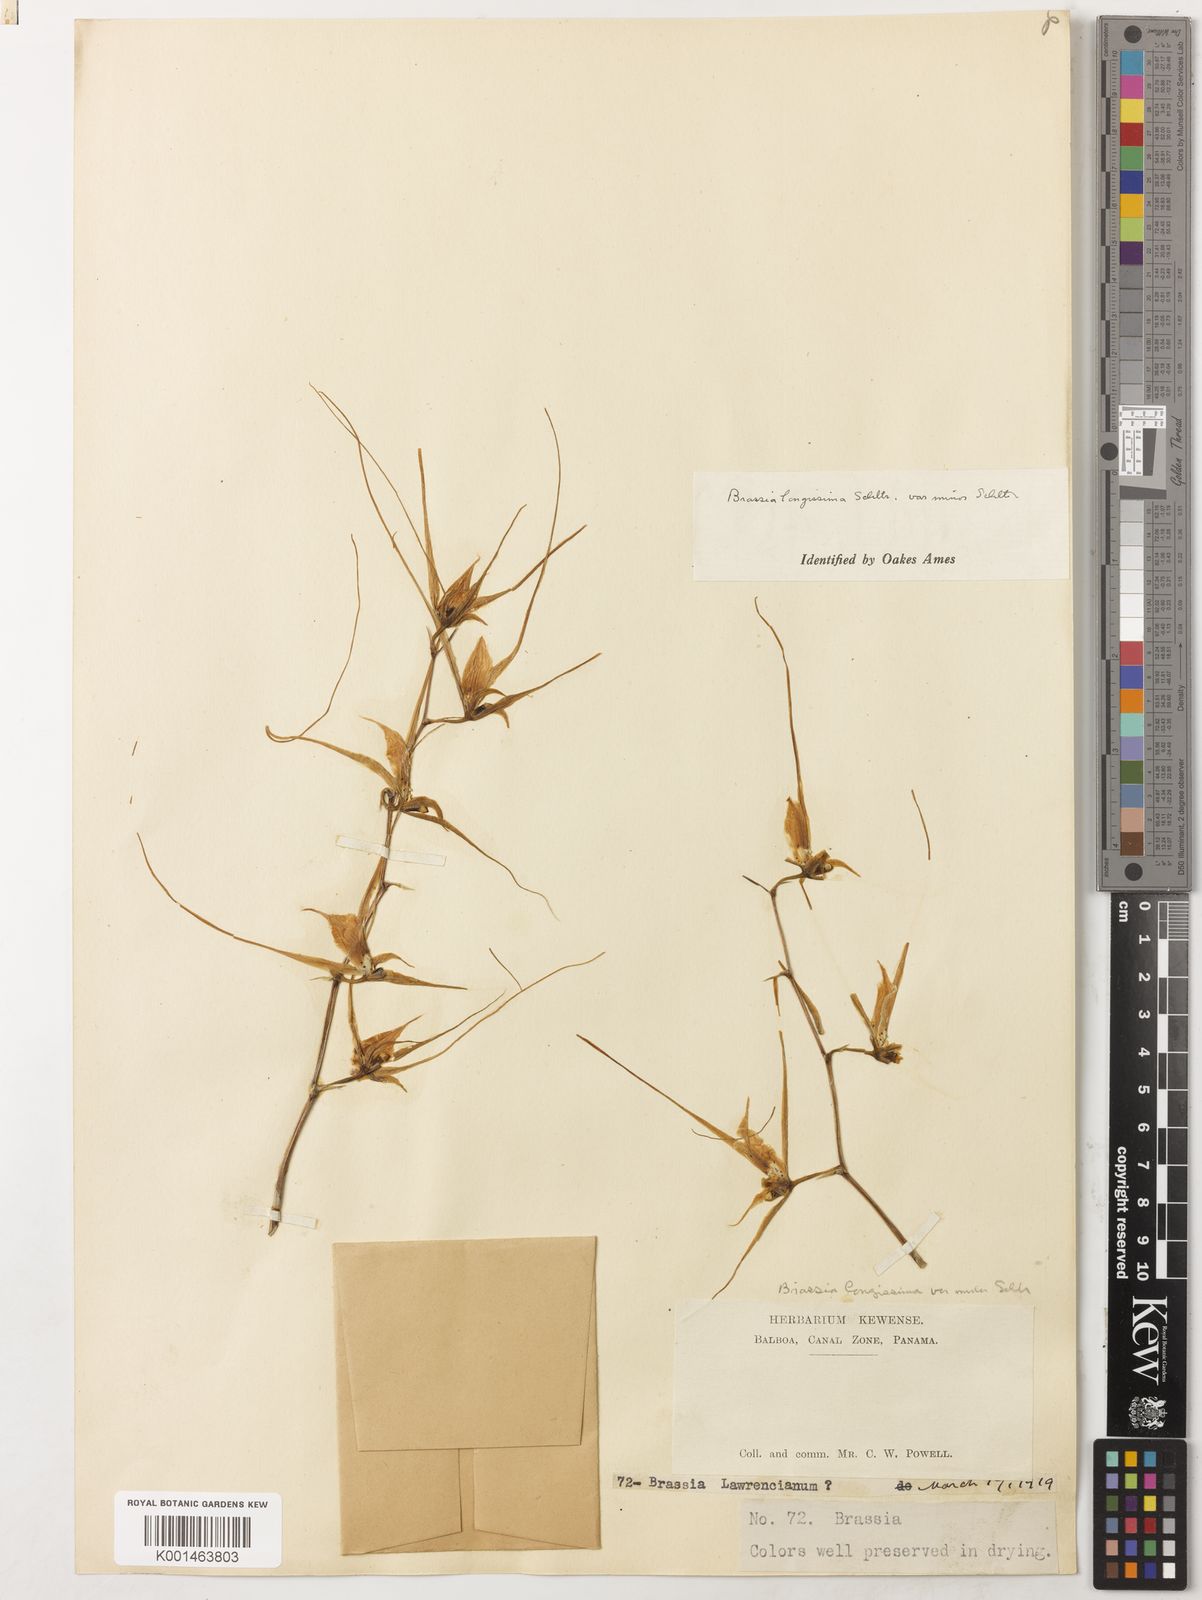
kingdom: Plantae
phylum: Tracheophyta
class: Liliopsida
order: Asparagales
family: Orchidaceae
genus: Brassia
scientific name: Brassia caudata
